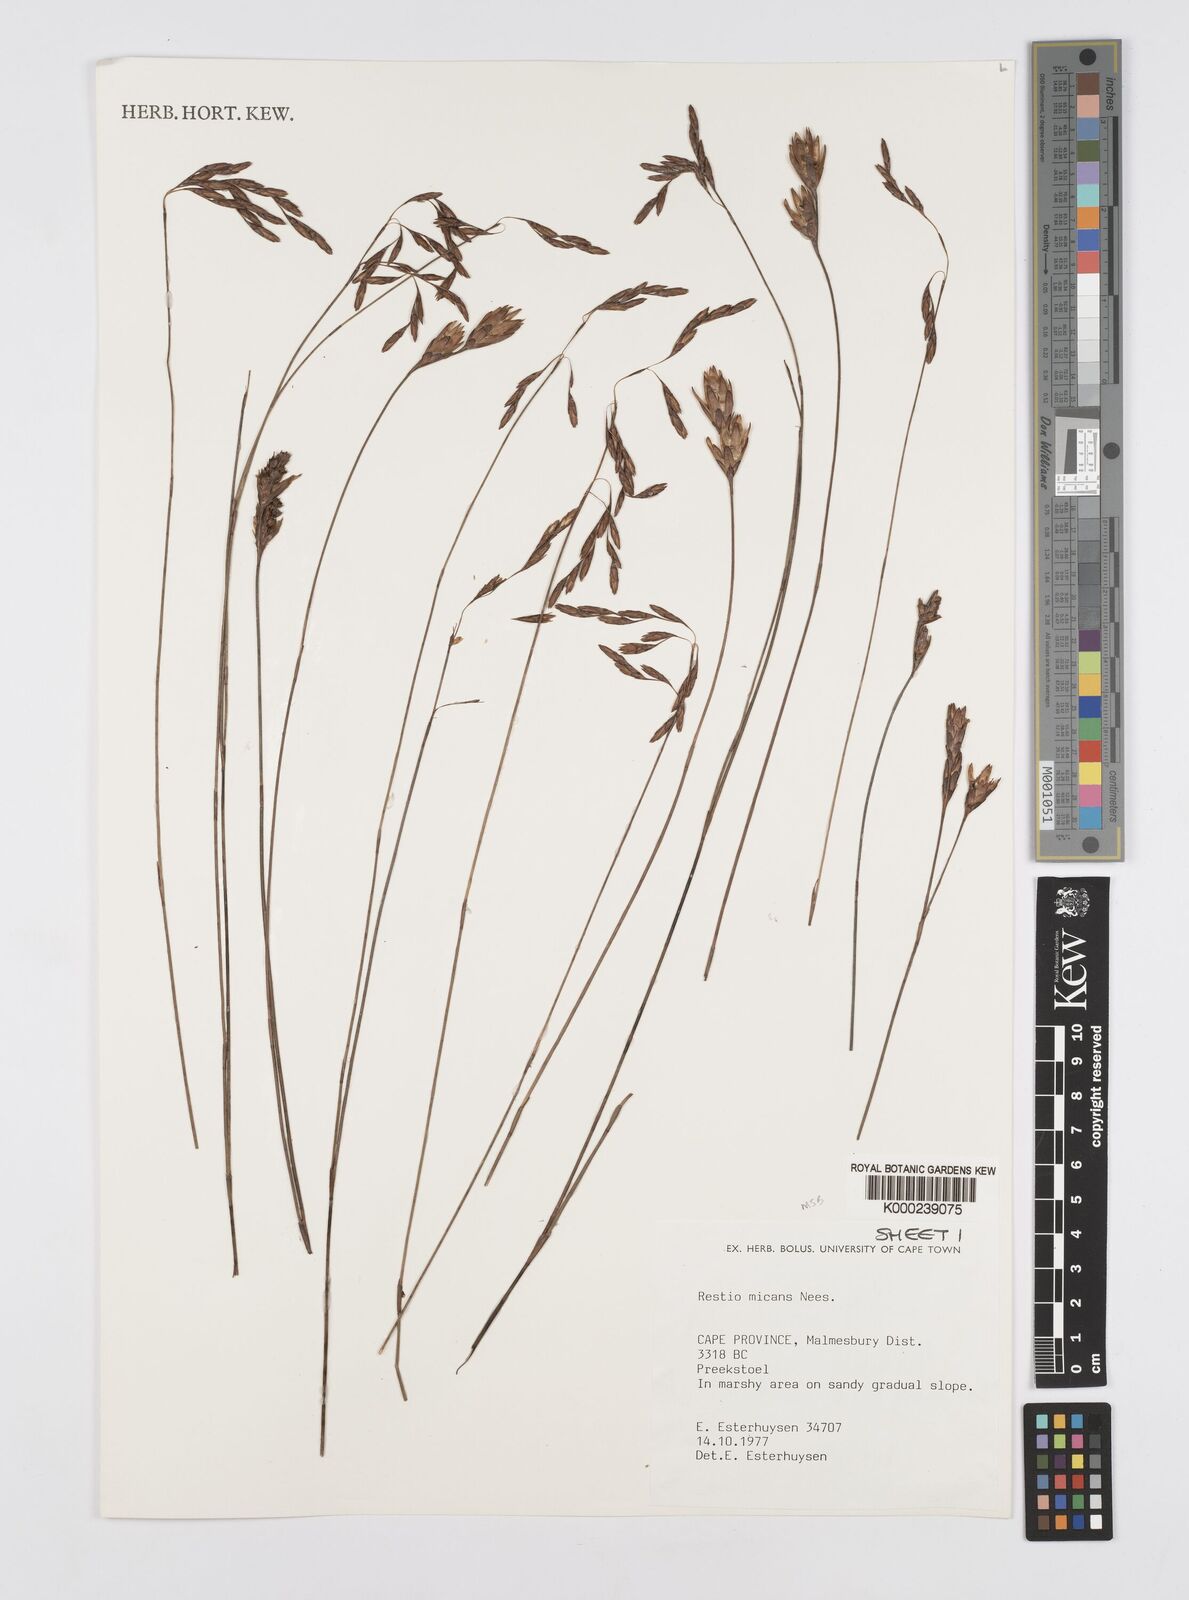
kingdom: Plantae
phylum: Tracheophyta
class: Liliopsida
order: Poales
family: Restionaceae
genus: Restio
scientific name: Restio micans
